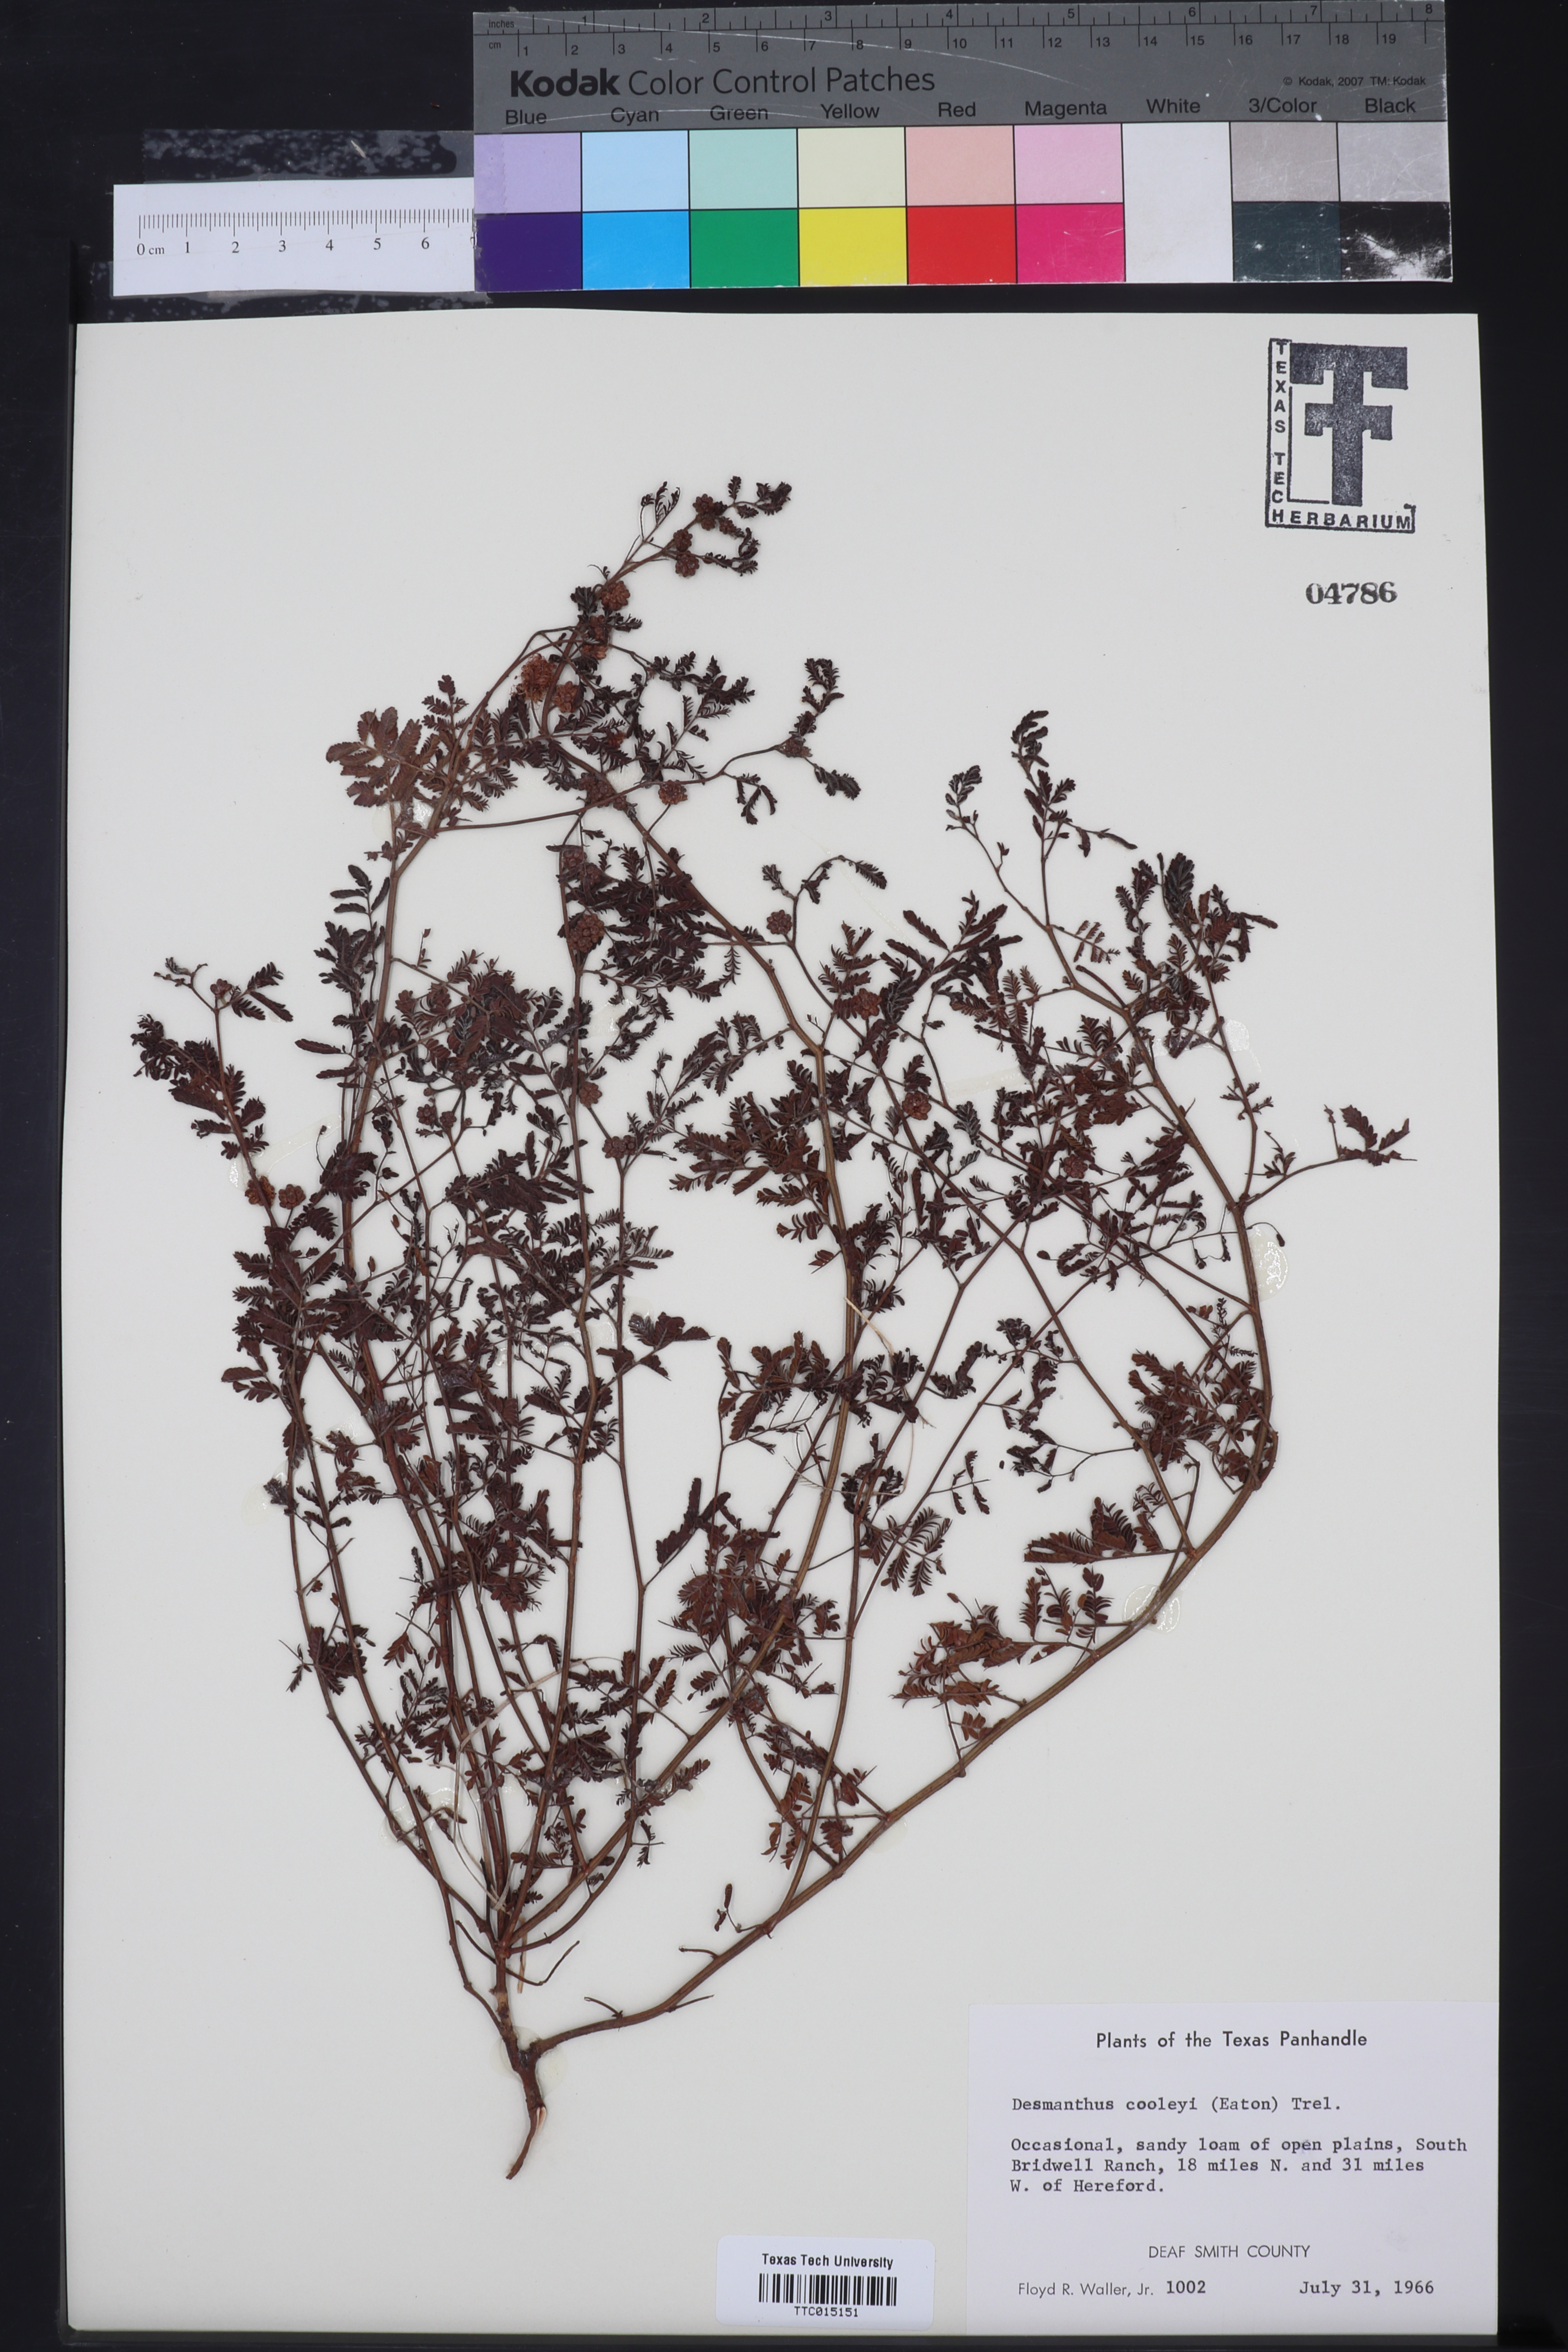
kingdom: Plantae
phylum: Tracheophyta
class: Magnoliopsida
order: Fabales
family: Fabaceae
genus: Desmanthus
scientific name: Desmanthus cooleyi
